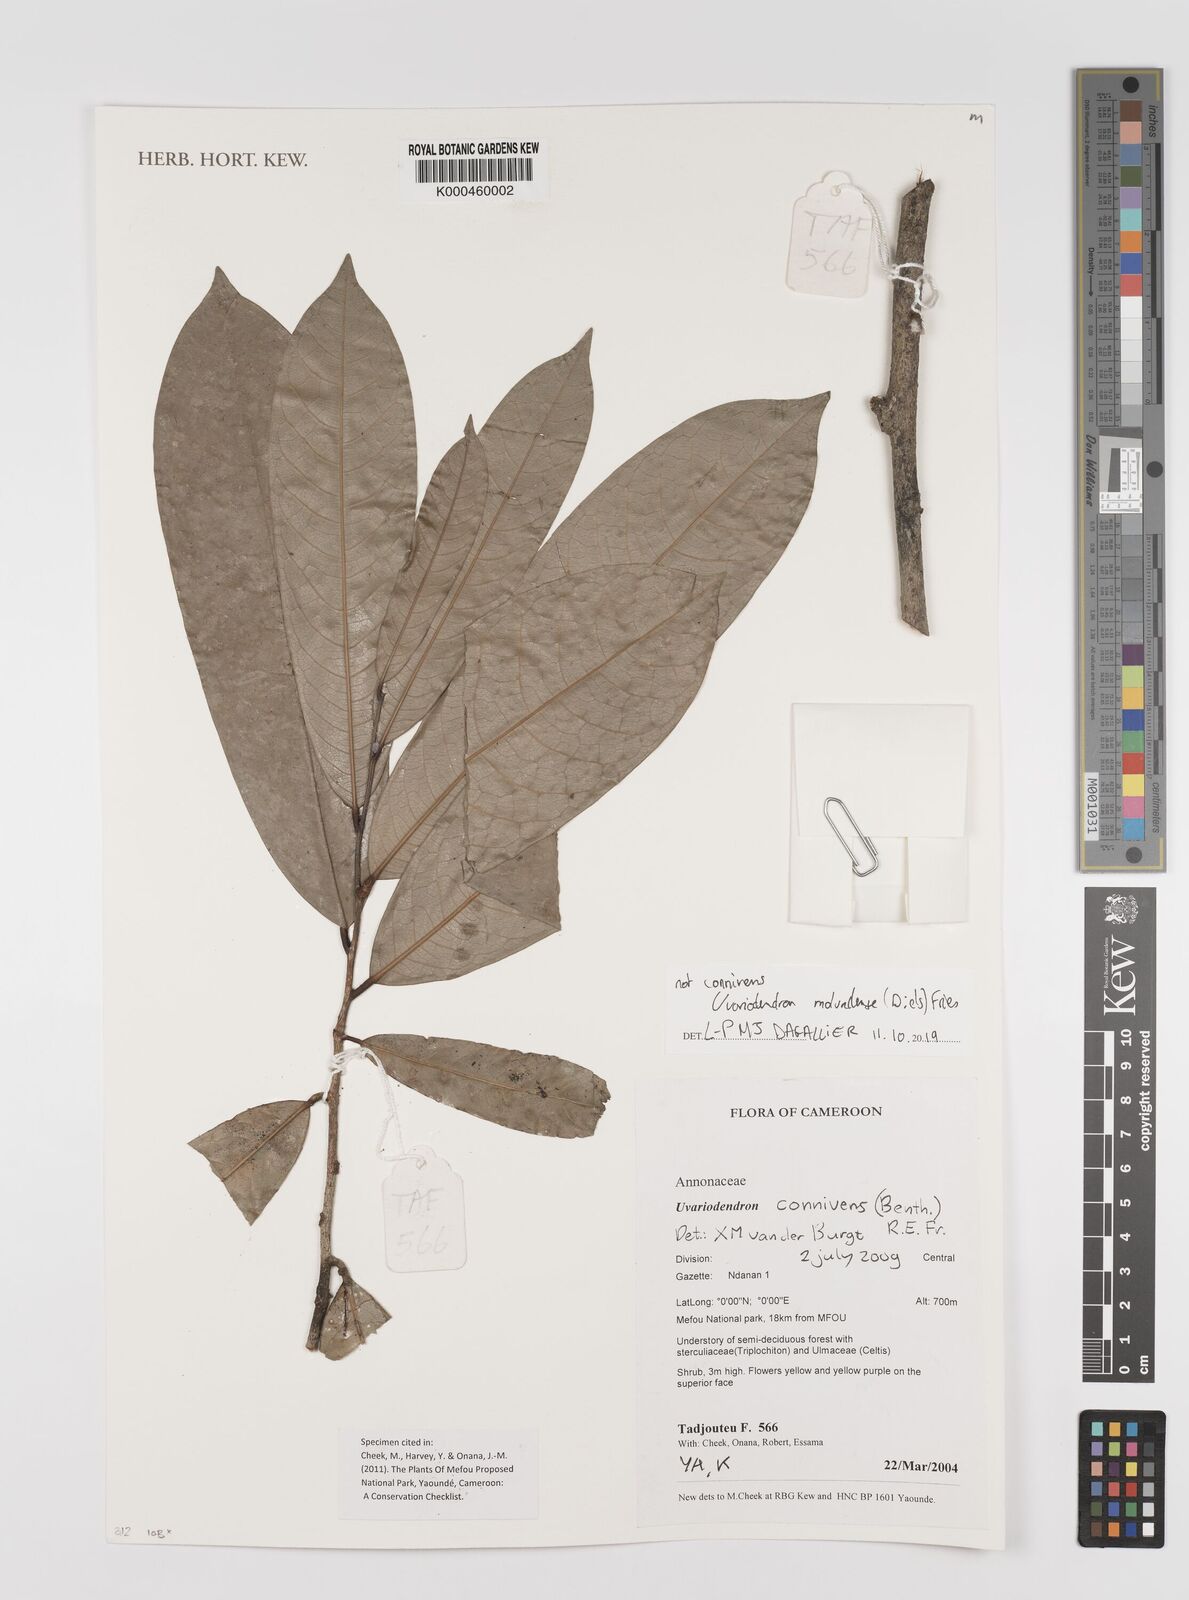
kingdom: Plantae
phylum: Tracheophyta
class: Magnoliopsida
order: Magnoliales
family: Annonaceae
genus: Uvariodendron
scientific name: Uvariodendron connivens
